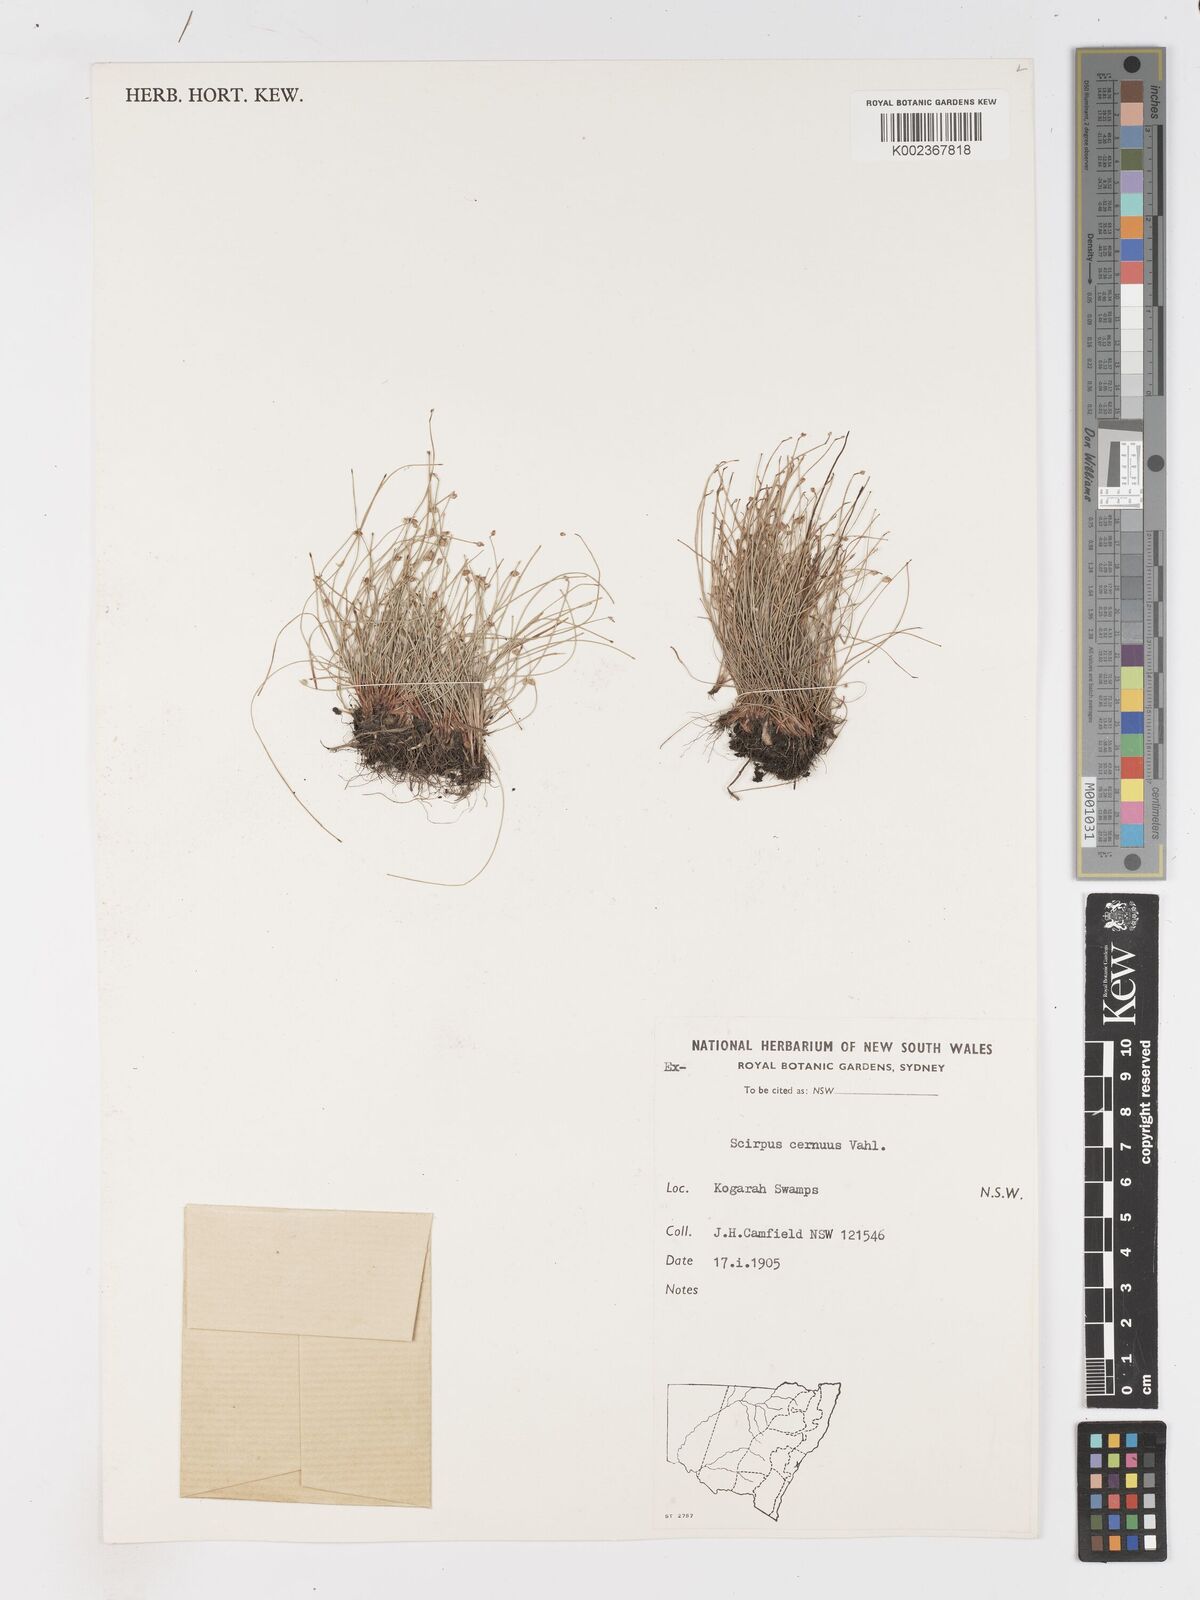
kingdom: Plantae
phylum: Tracheophyta
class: Liliopsida
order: Poales
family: Cyperaceae
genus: Isolepis
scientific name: Isolepis cernua
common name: Slender club-rush
